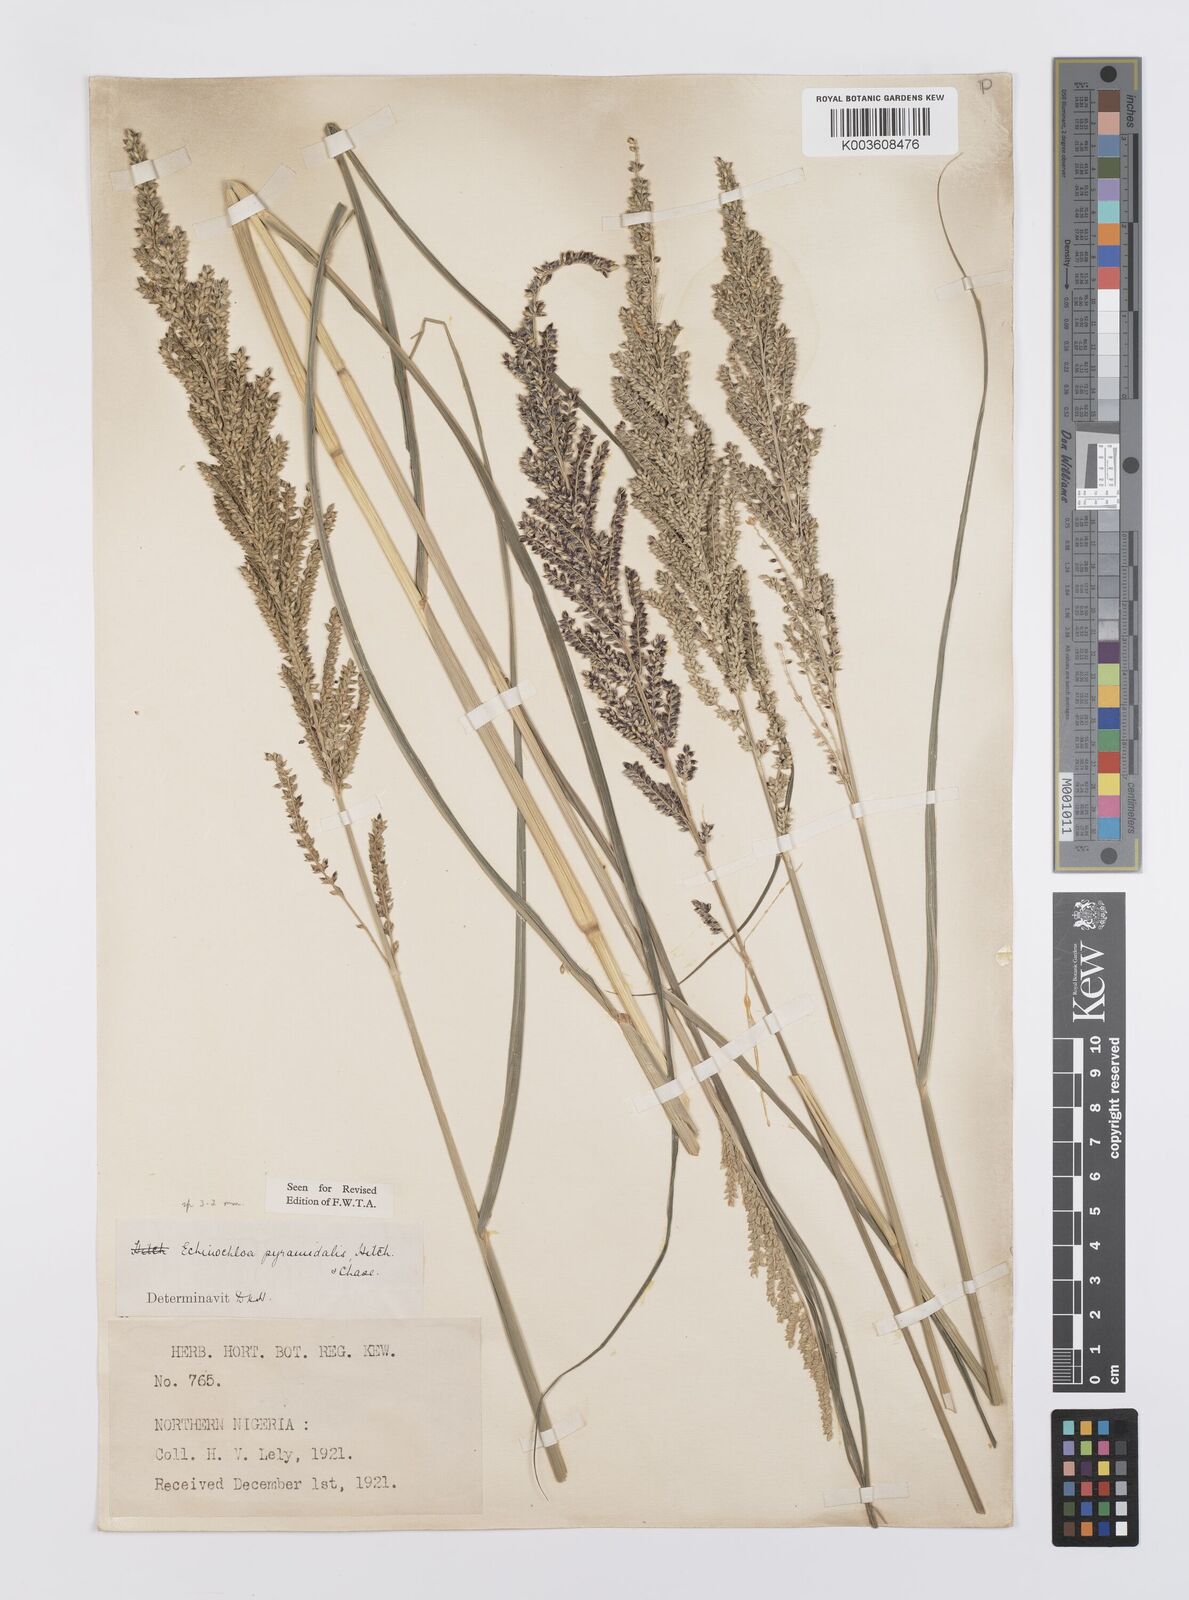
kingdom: Plantae
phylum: Tracheophyta
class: Liliopsida
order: Poales
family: Poaceae
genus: Echinochloa
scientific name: Echinochloa pyramidalis
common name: Antelope grass
